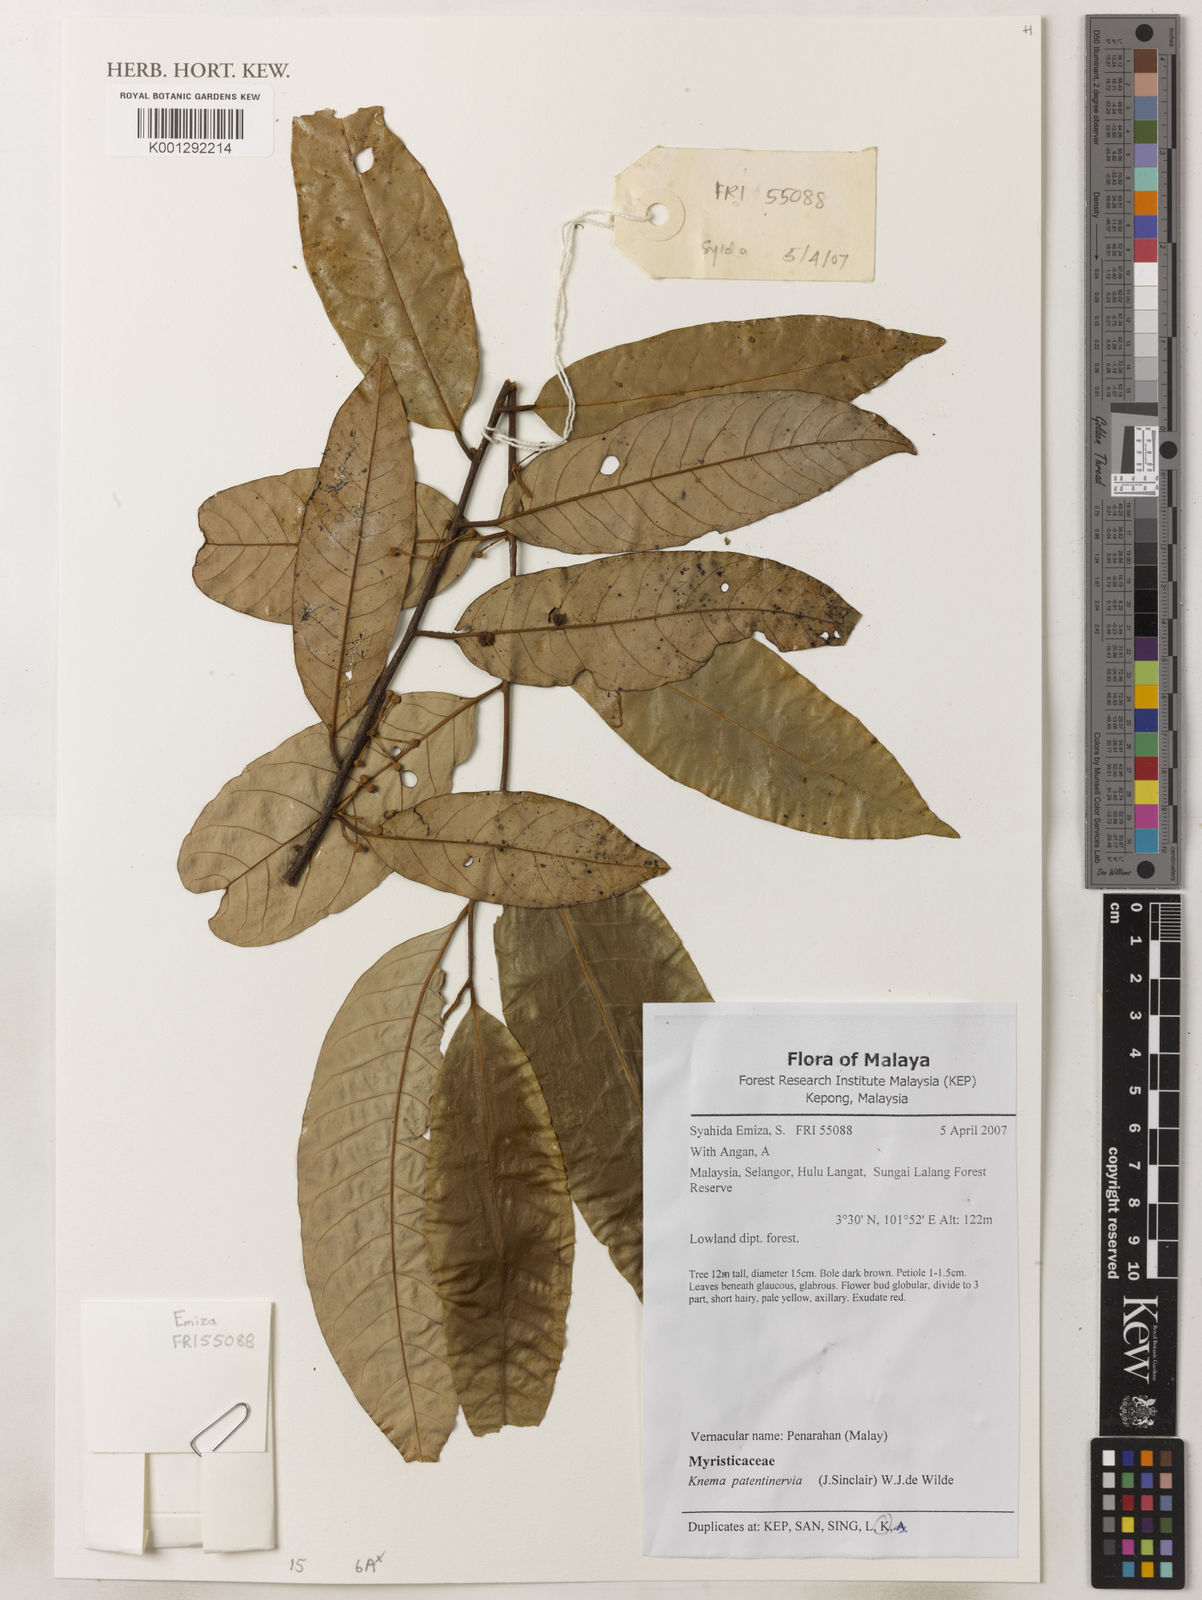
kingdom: Plantae
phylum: Tracheophyta
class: Magnoliopsida
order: Magnoliales
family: Myristicaceae
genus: Knema
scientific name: Knema patentinervia
